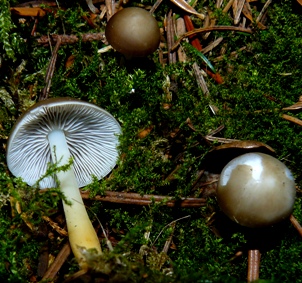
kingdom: Fungi
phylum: Basidiomycota
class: Agaricomycetes
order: Agaricales
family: Physalacriaceae
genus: Strobilurus
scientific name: Strobilurus esculentus
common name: gran-koglehat
